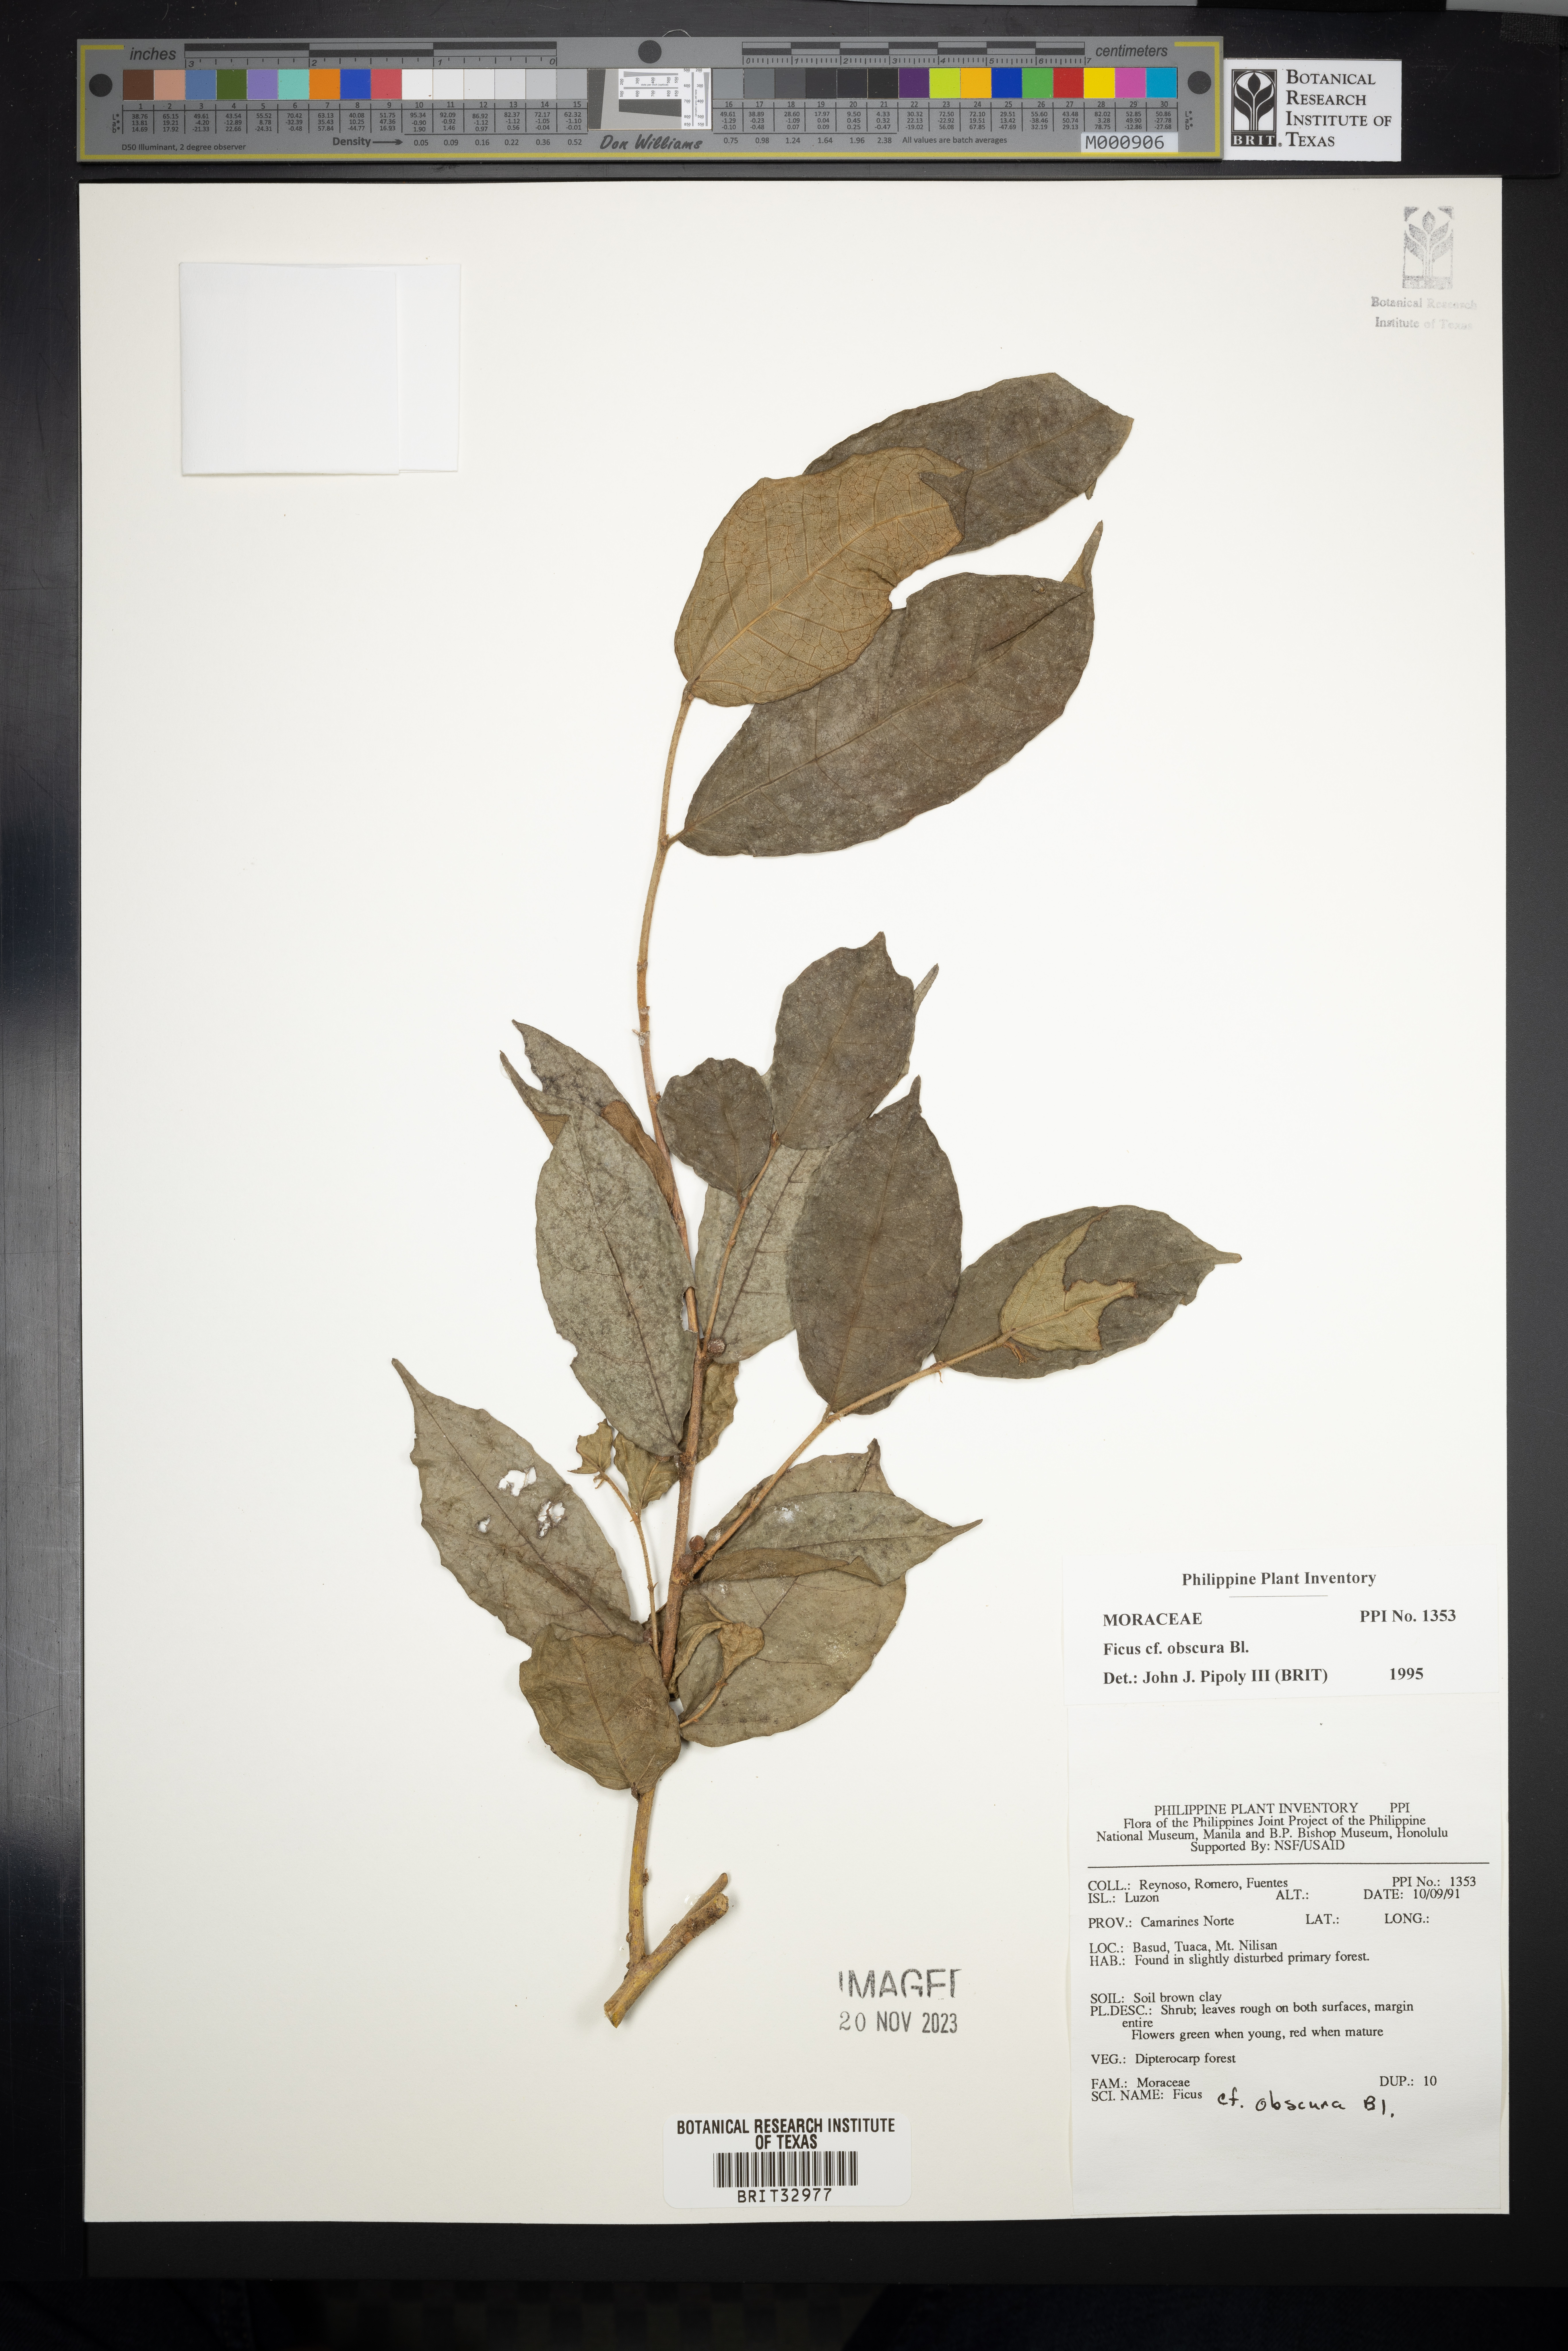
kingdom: Plantae
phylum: Tracheophyta
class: Magnoliopsida
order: Rosales
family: Moraceae
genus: Ficus
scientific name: Ficus obscura
